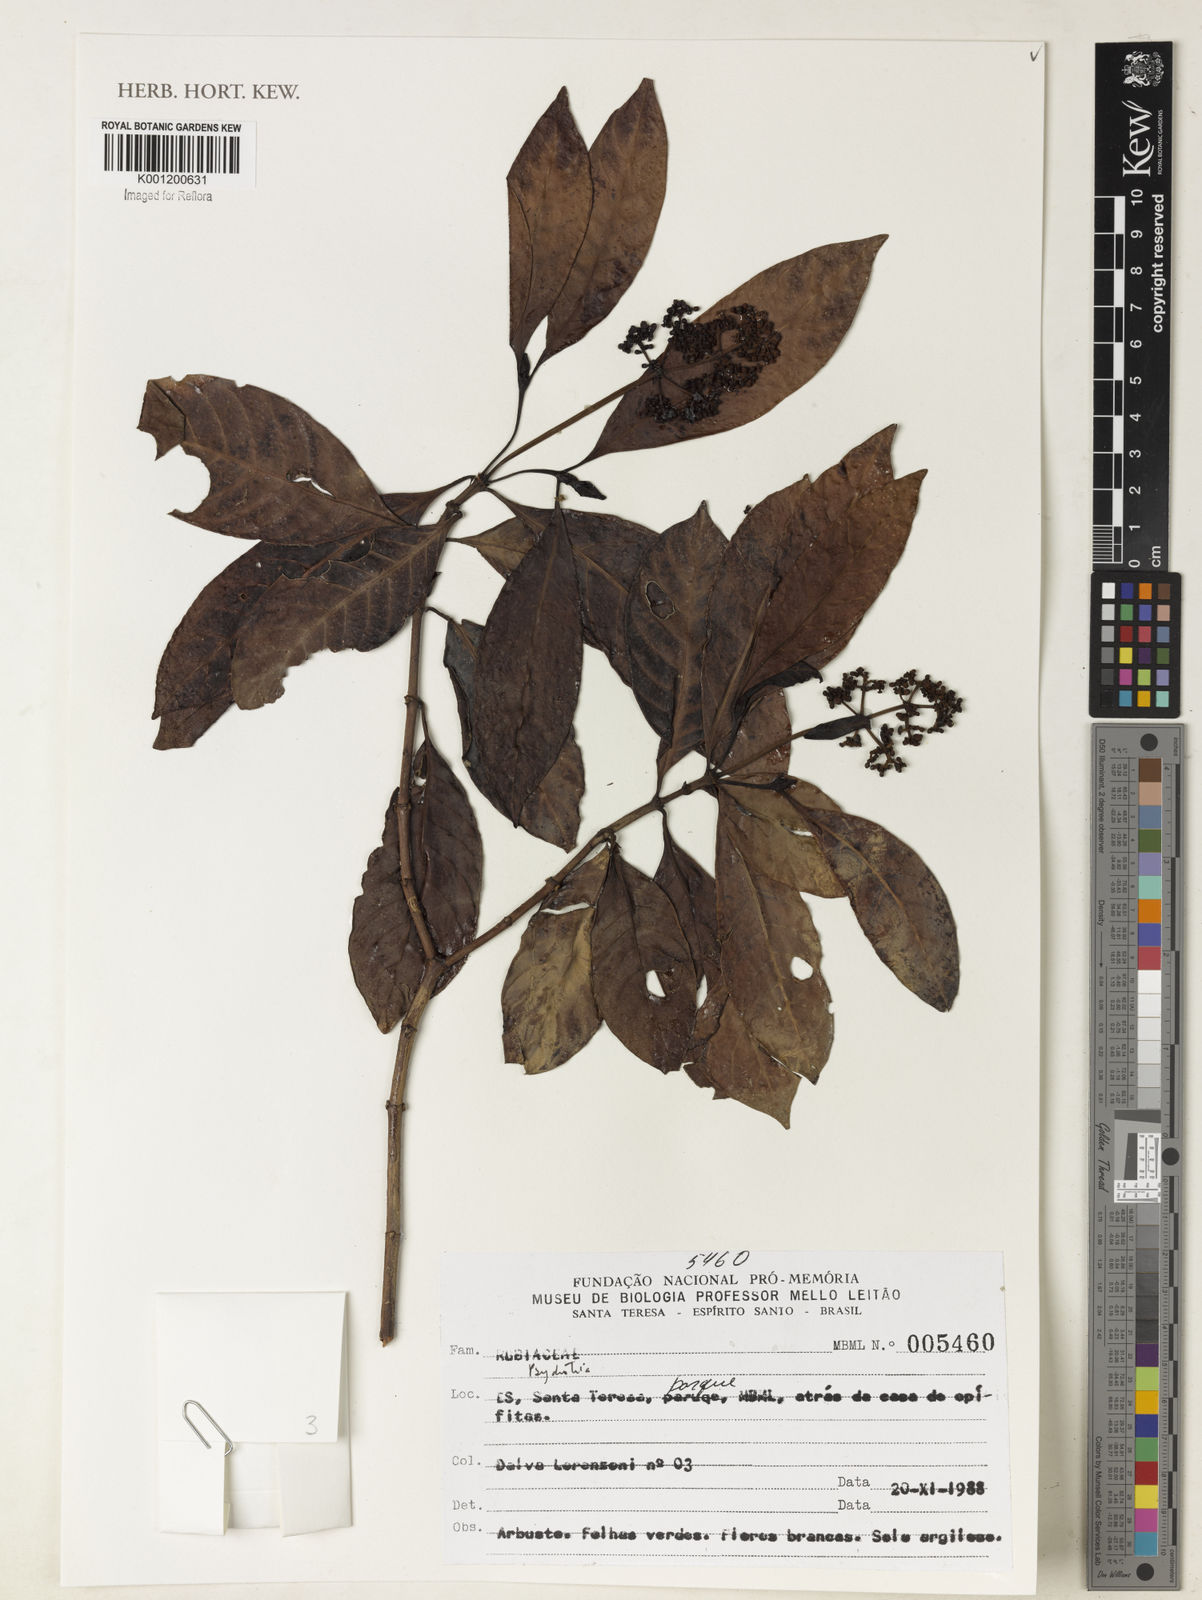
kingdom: Plantae
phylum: Tracheophyta
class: Magnoliopsida
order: Gentianales
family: Rubiaceae
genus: Psychotria
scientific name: Psychotria
